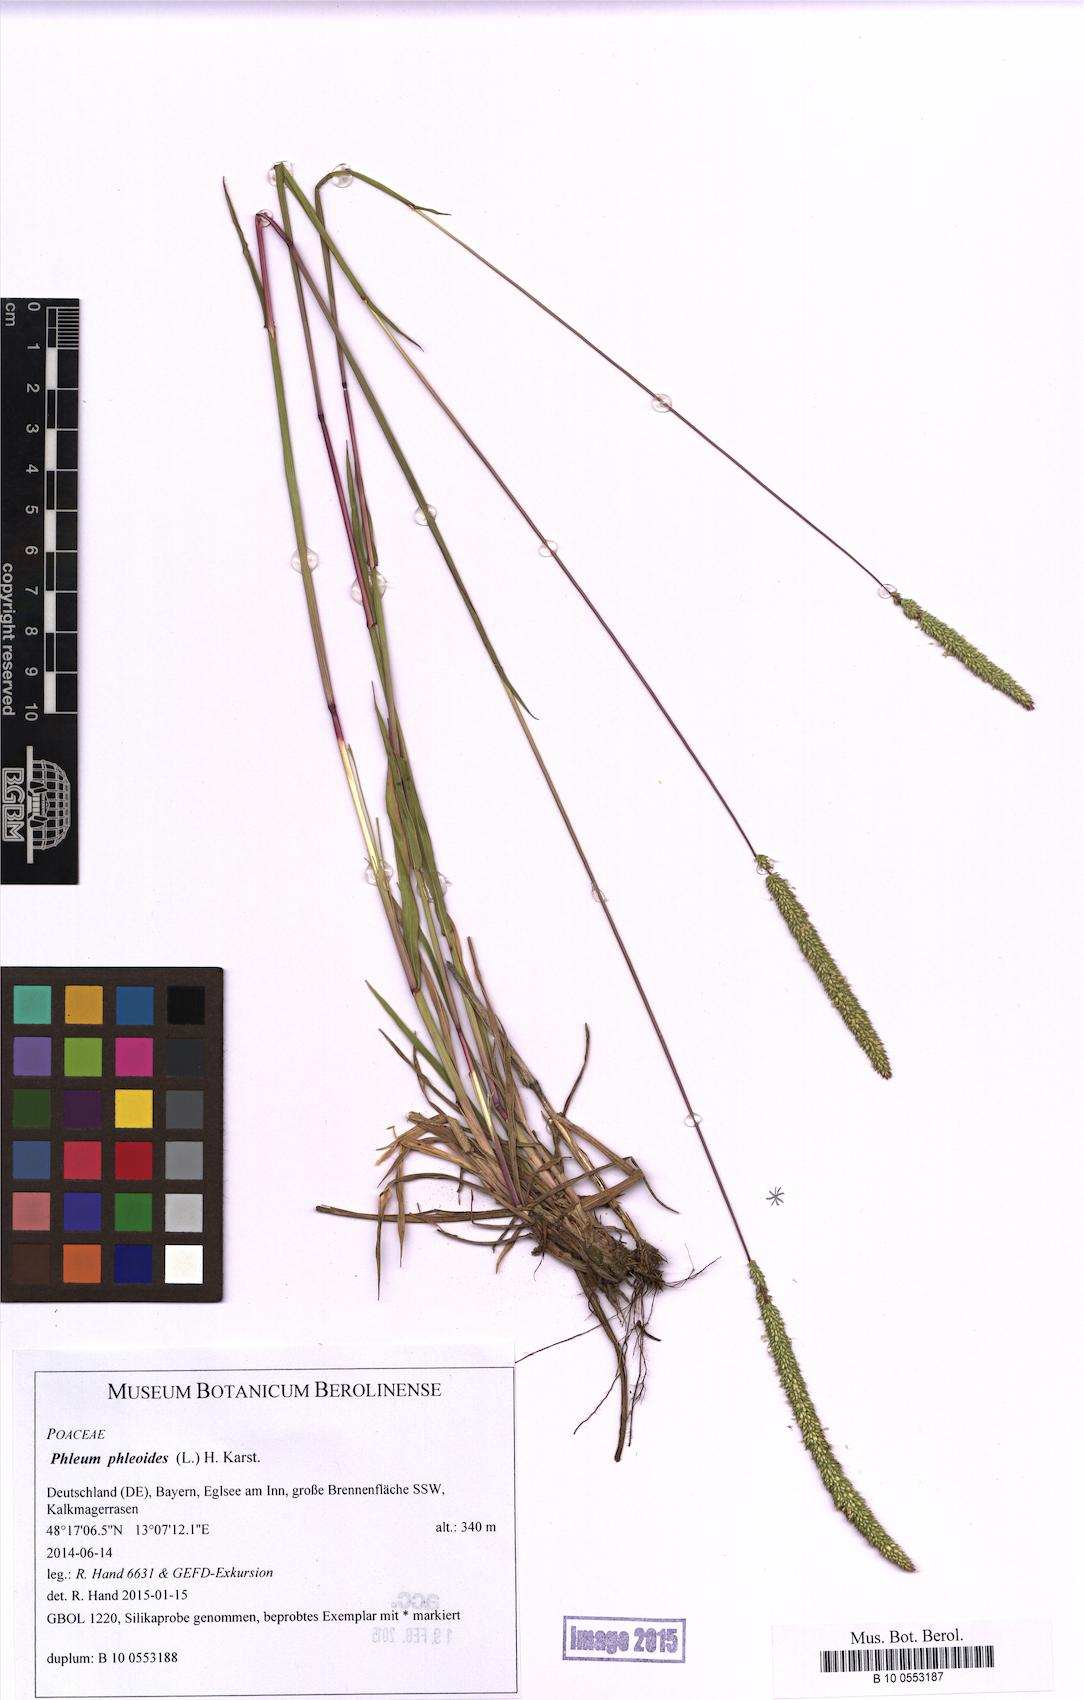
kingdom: Plantae
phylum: Tracheophyta
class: Liliopsida
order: Poales
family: Poaceae
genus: Phleum
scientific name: Phleum phleoides
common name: Purple-stem cat's-tail
